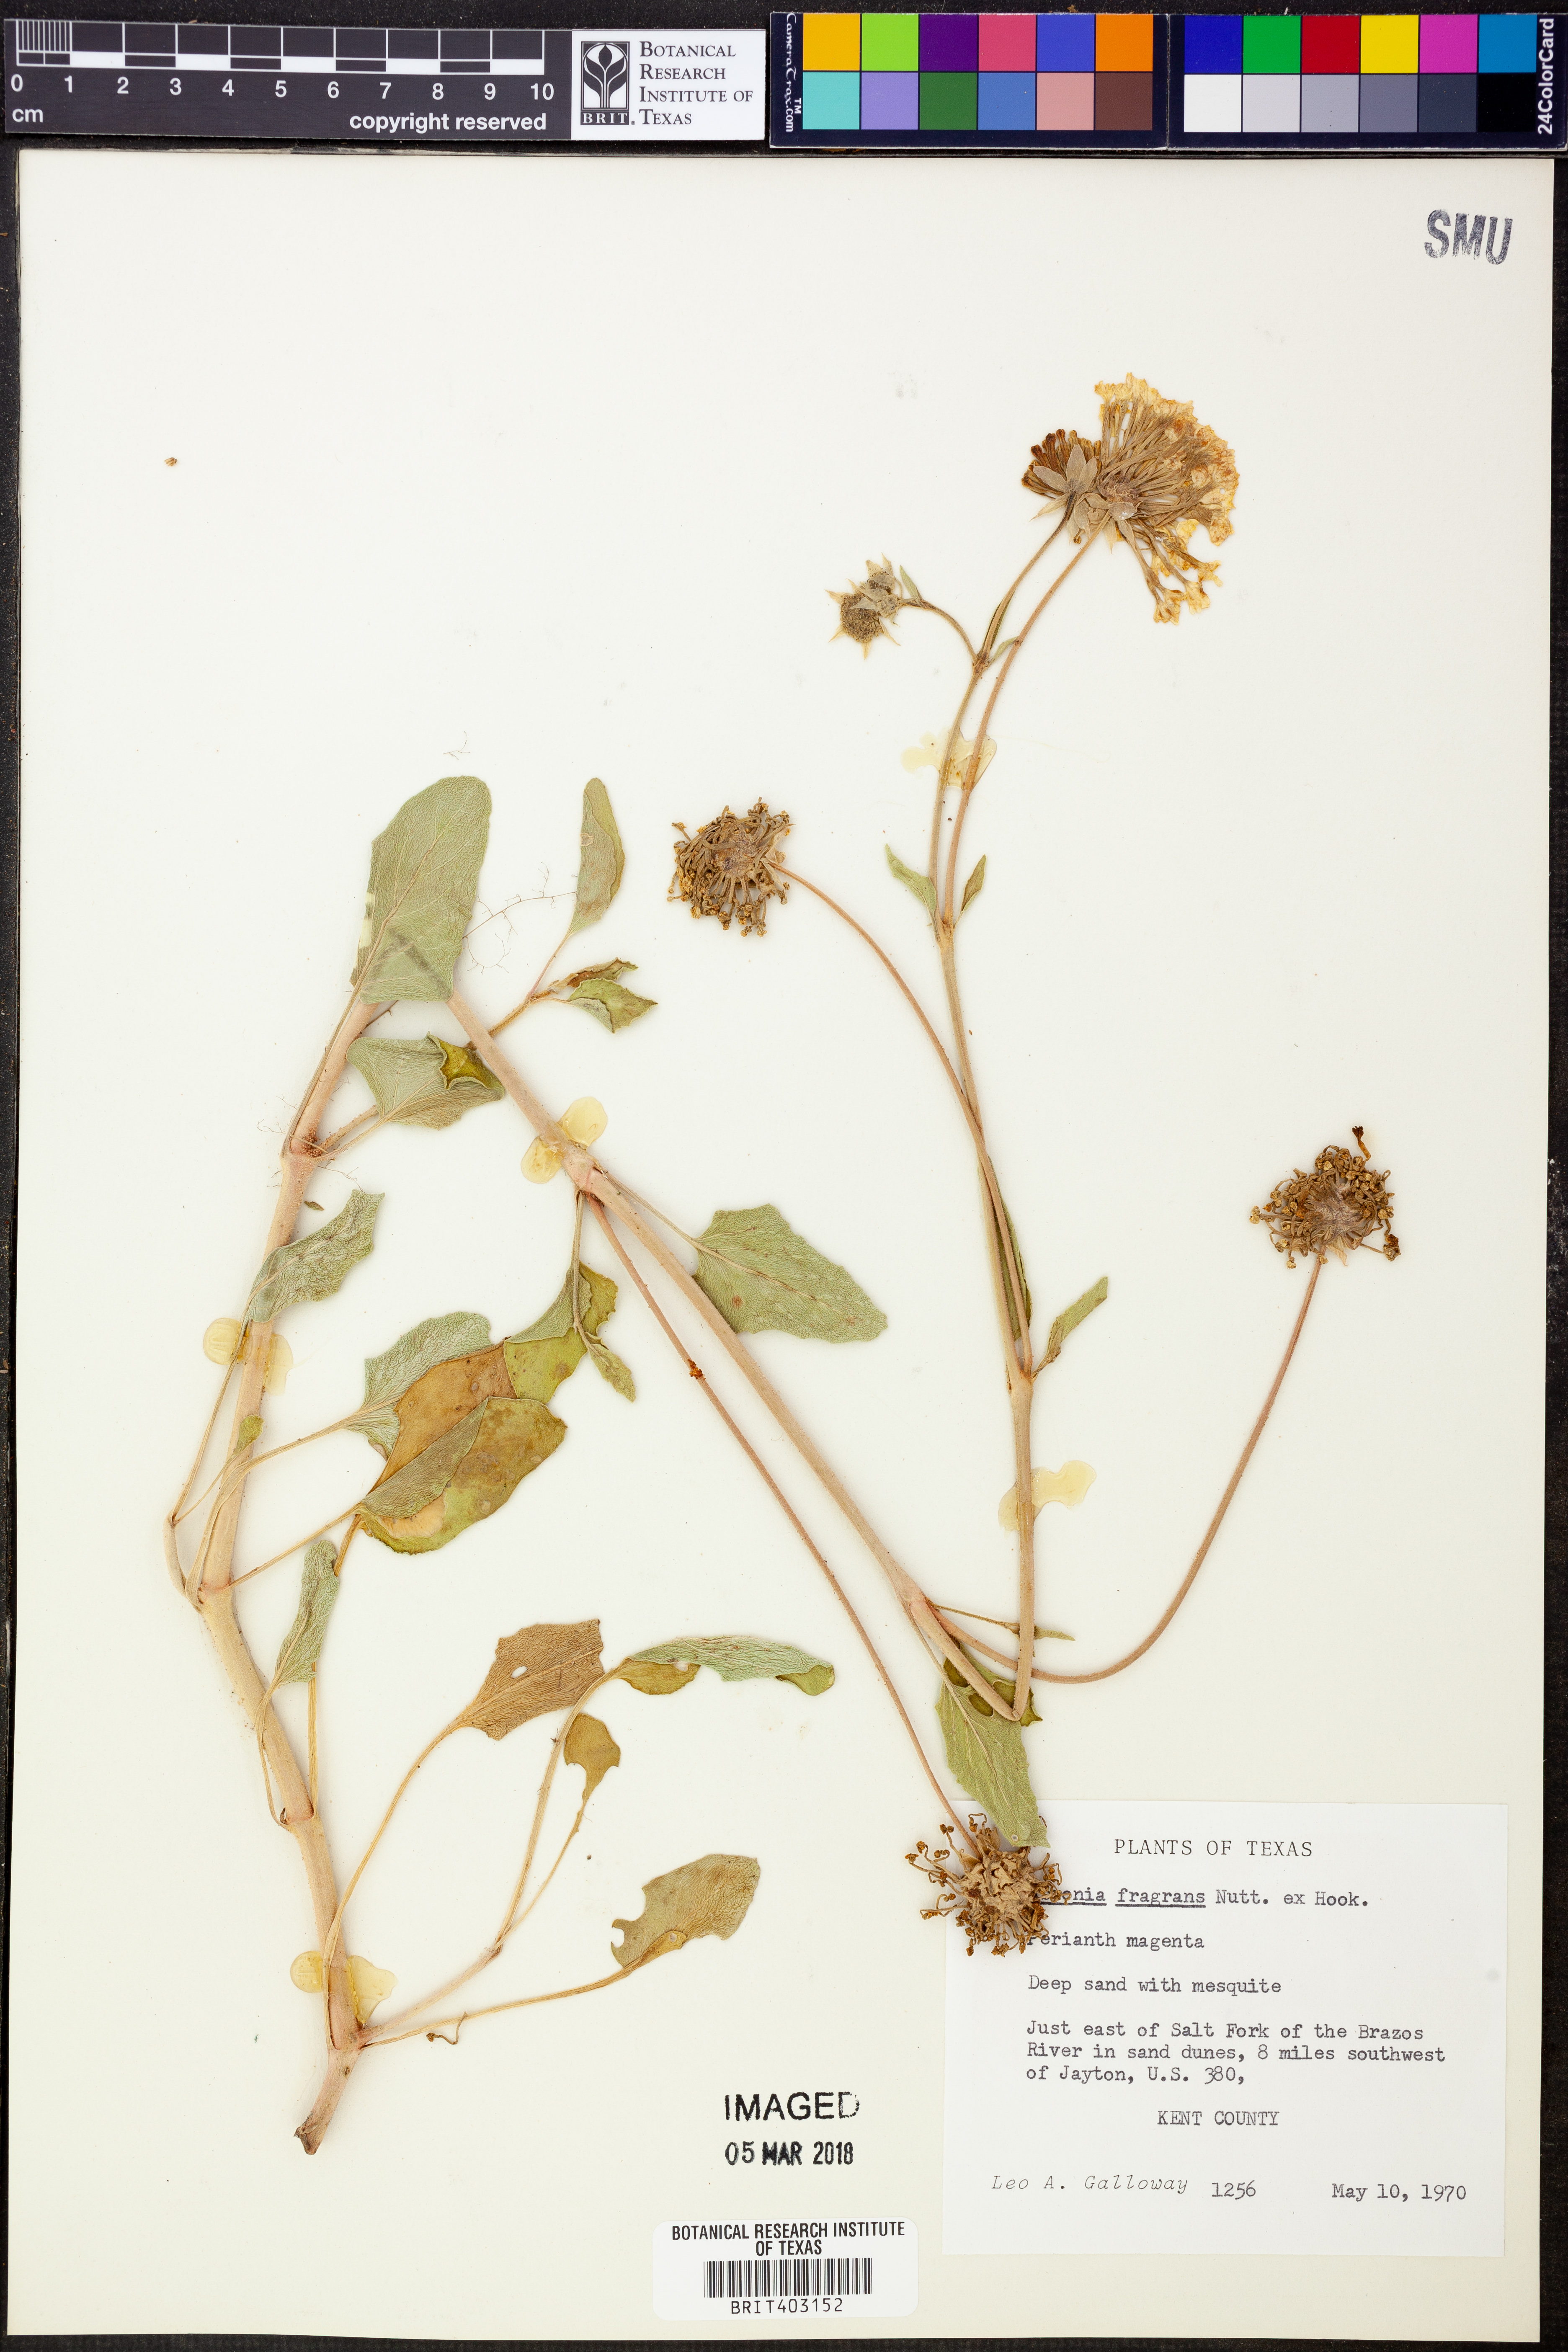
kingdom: Plantae
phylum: Tracheophyta
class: Magnoliopsida
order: Caryophyllales
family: Nyctaginaceae
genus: Abronia
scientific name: Abronia fragrans
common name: Fragrant sand-verbena
